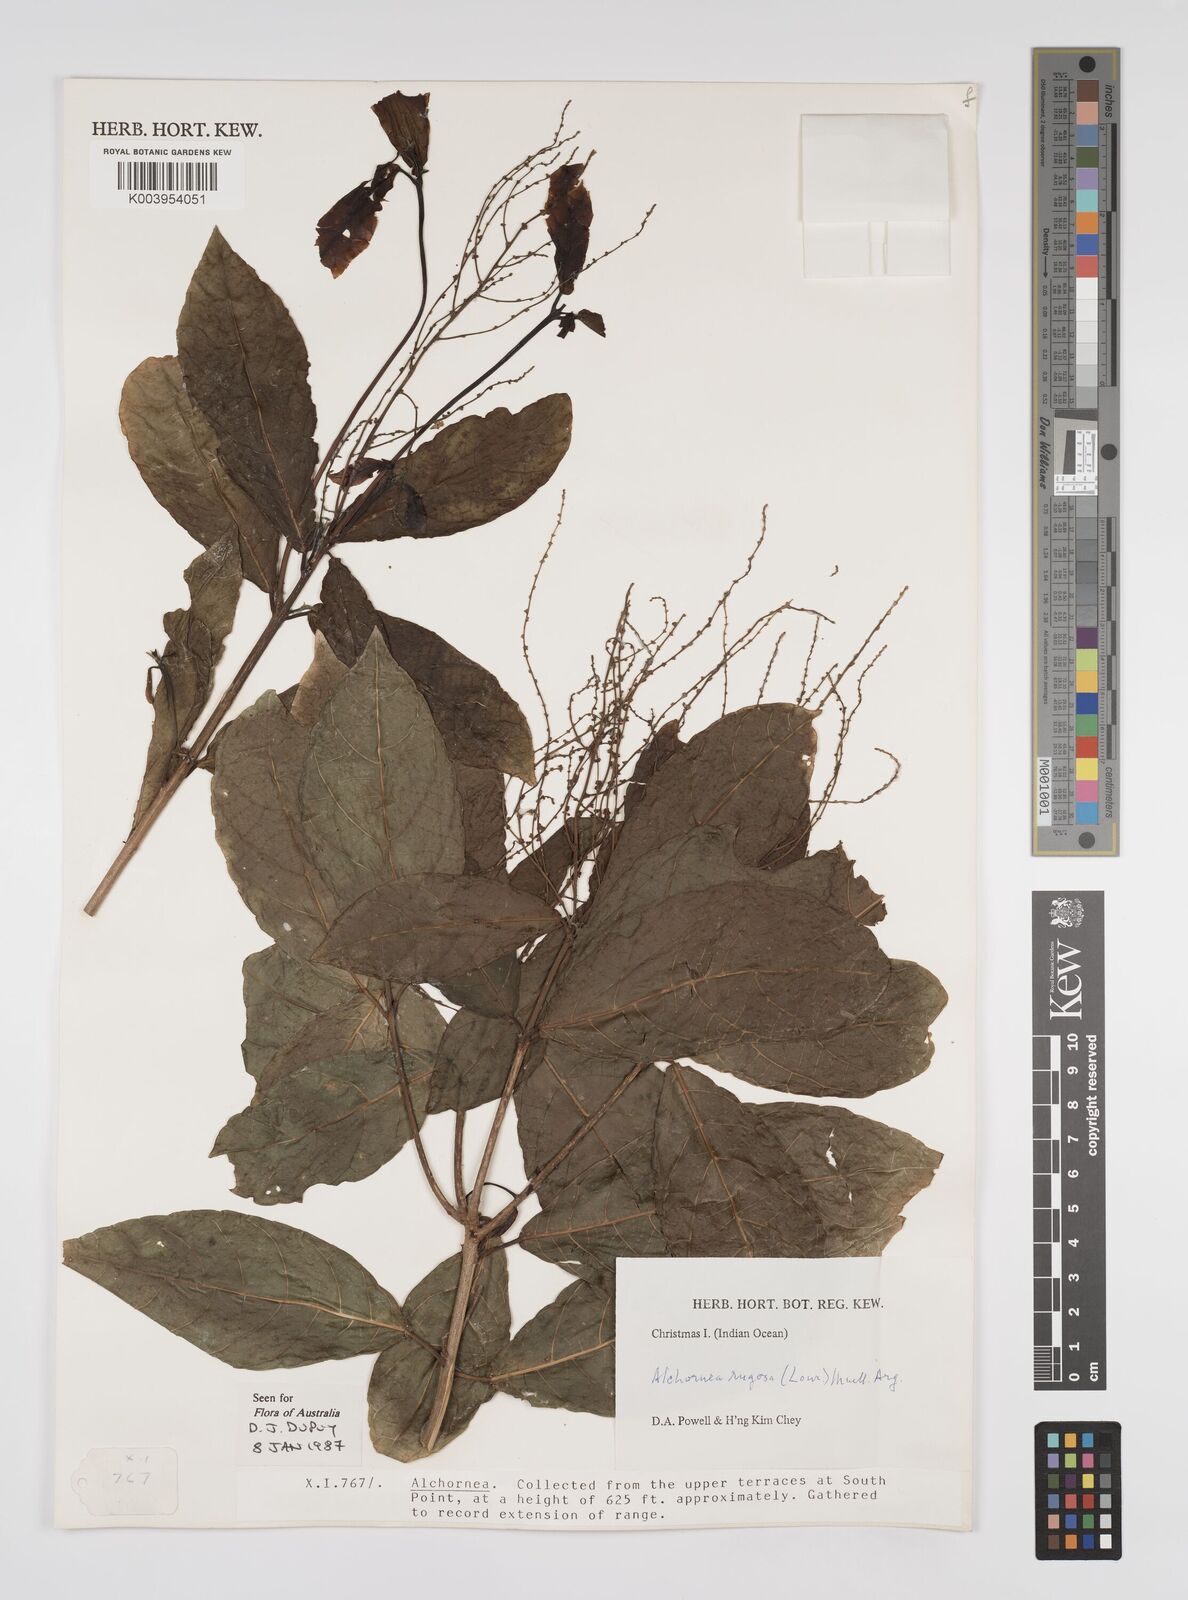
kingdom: Plantae
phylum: Tracheophyta
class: Magnoliopsida
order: Malpighiales
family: Euphorbiaceae
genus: Alchornea
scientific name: Alchornea rugosa
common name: Alchorntree
